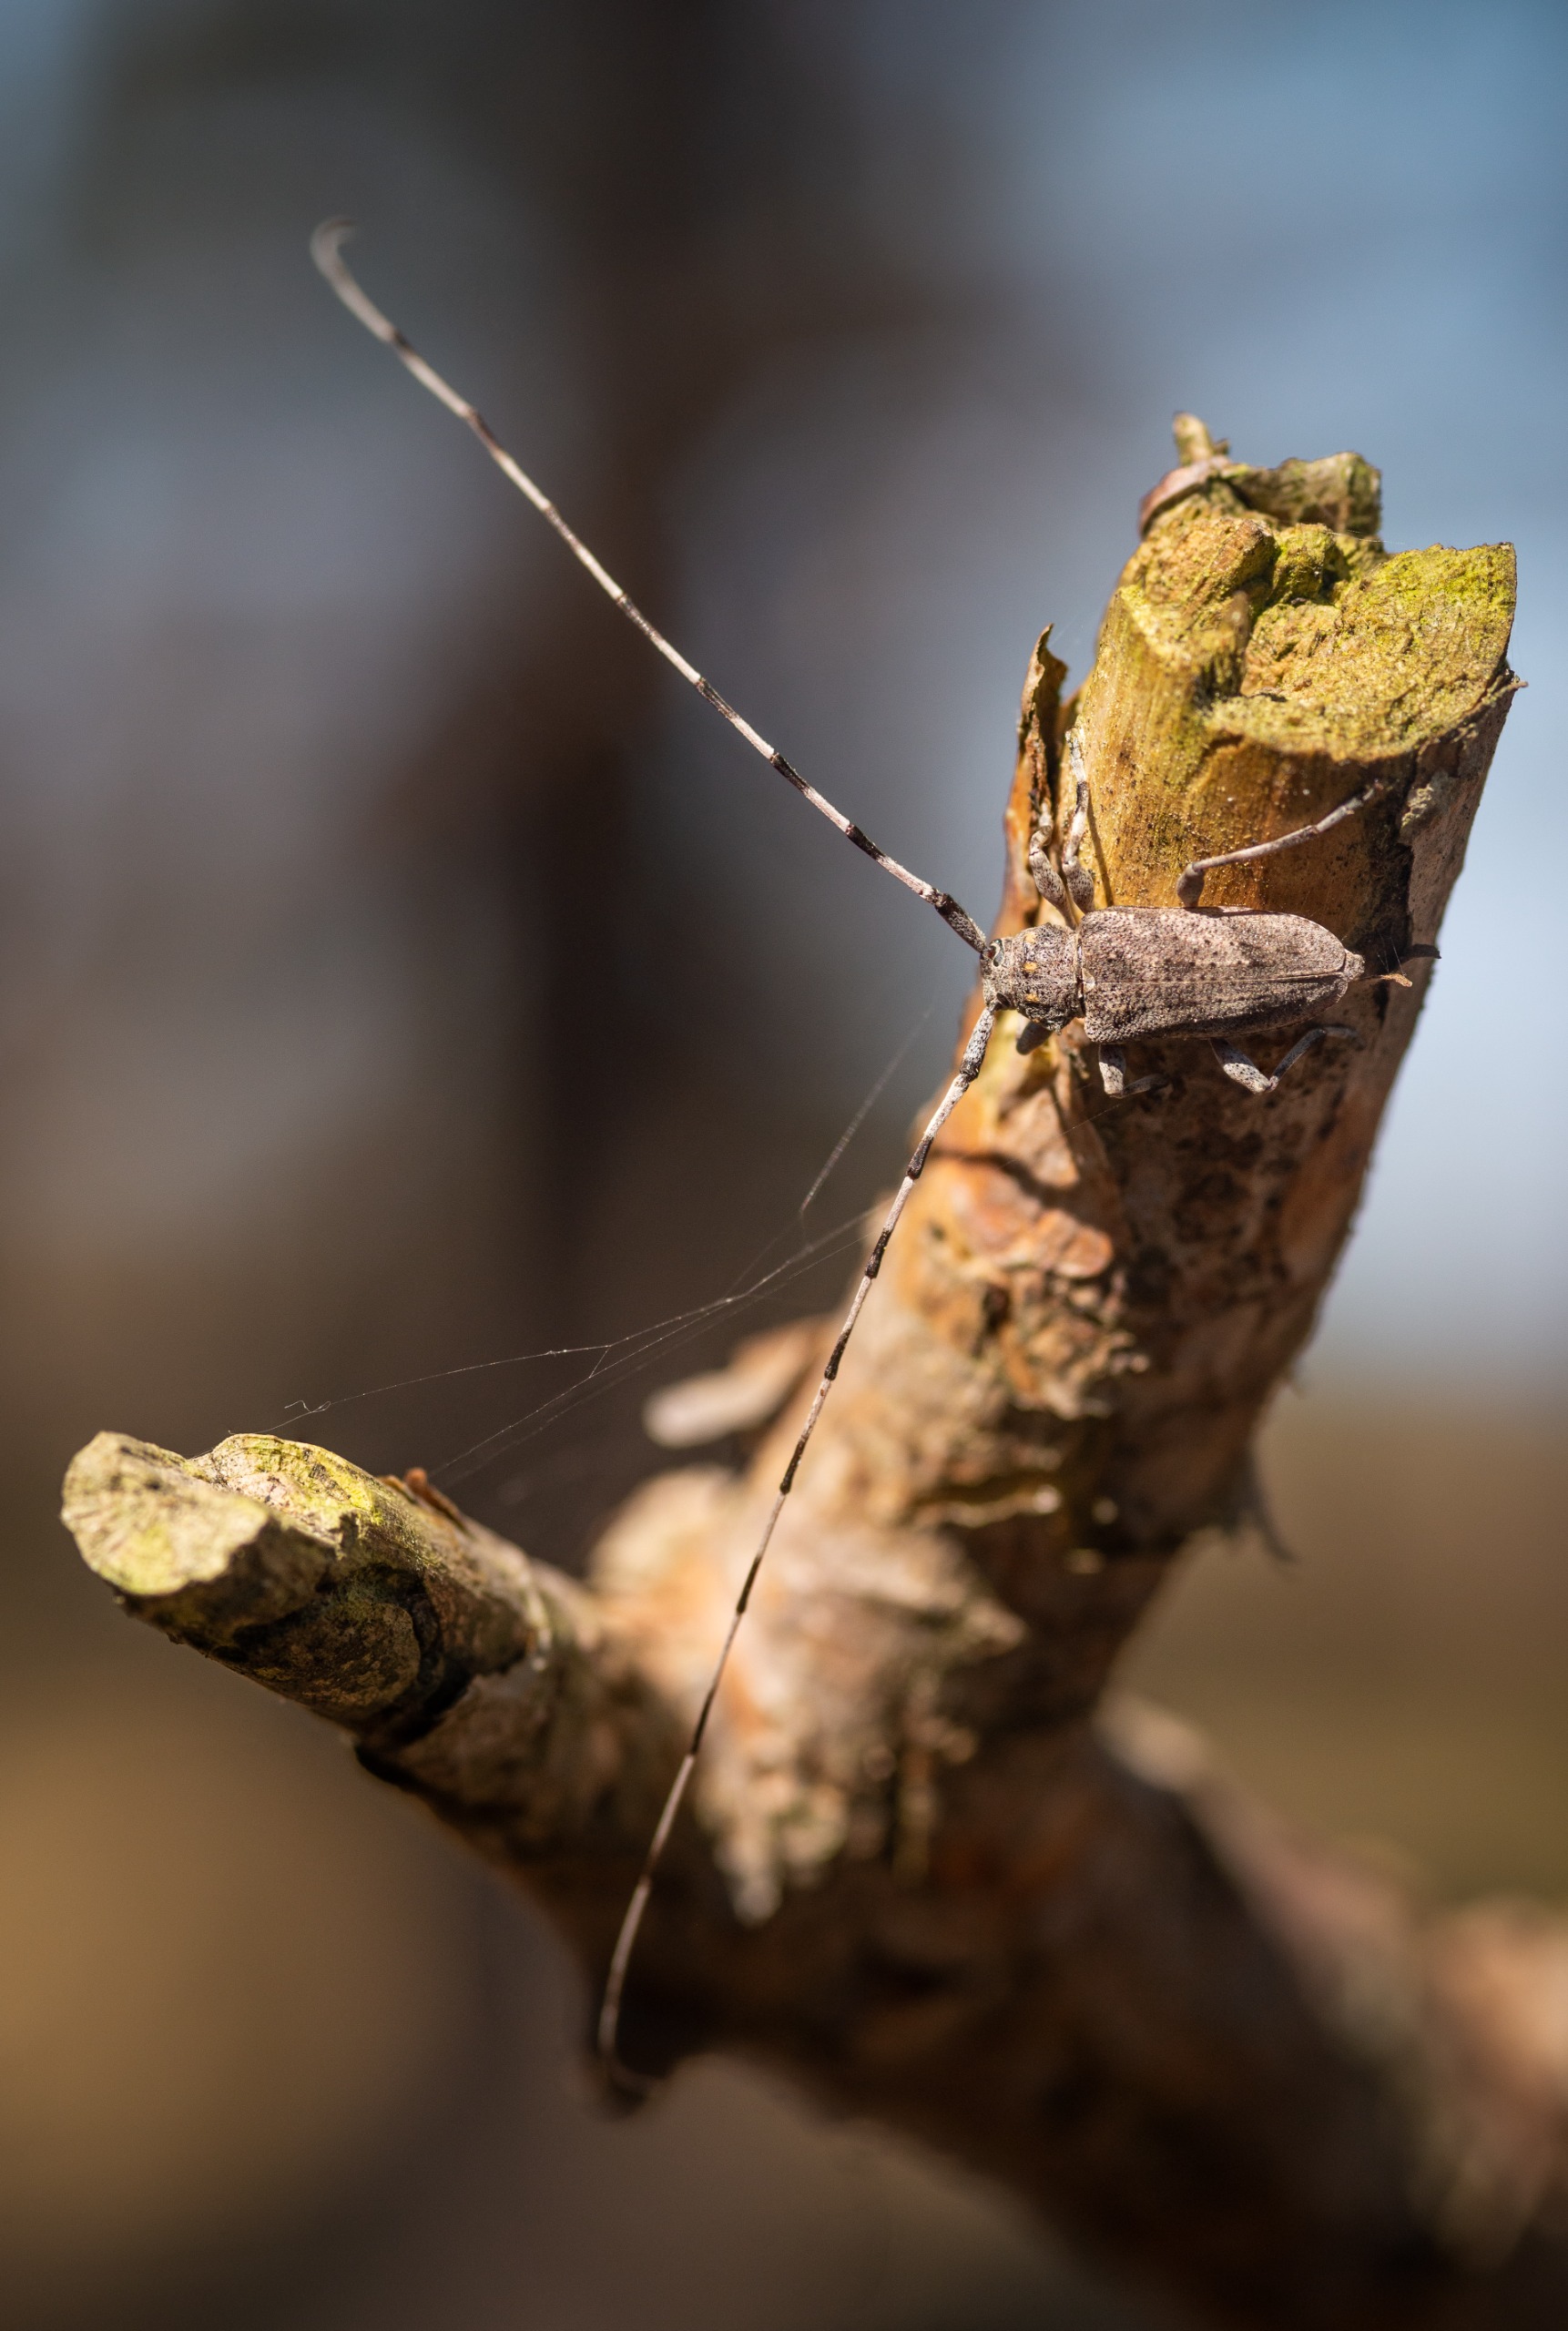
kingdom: Animalia
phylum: Arthropoda
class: Insecta
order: Coleoptera
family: Cerambycidae
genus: Acanthocinus
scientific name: Acanthocinus aedilis
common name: Tømmermand
